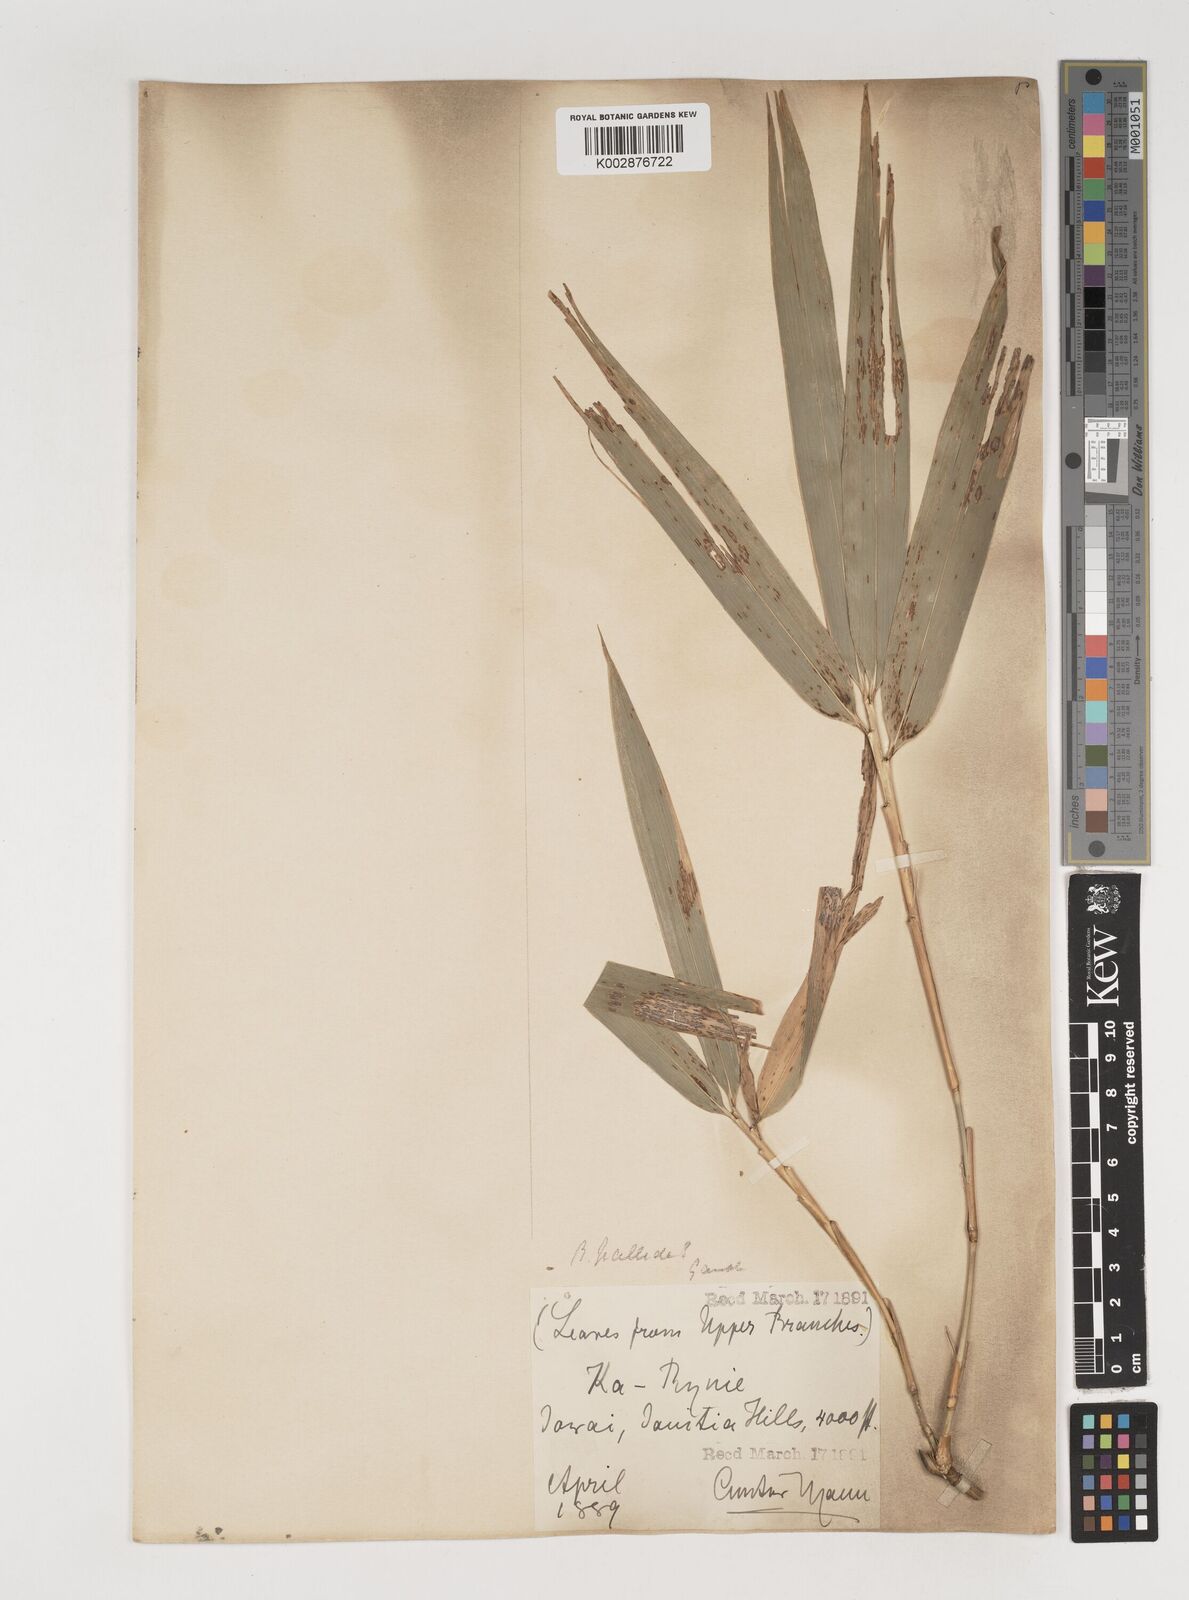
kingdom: Plantae
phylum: Tracheophyta
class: Liliopsida
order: Poales
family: Poaceae
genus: Bambusa
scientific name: Bambusa pallida
